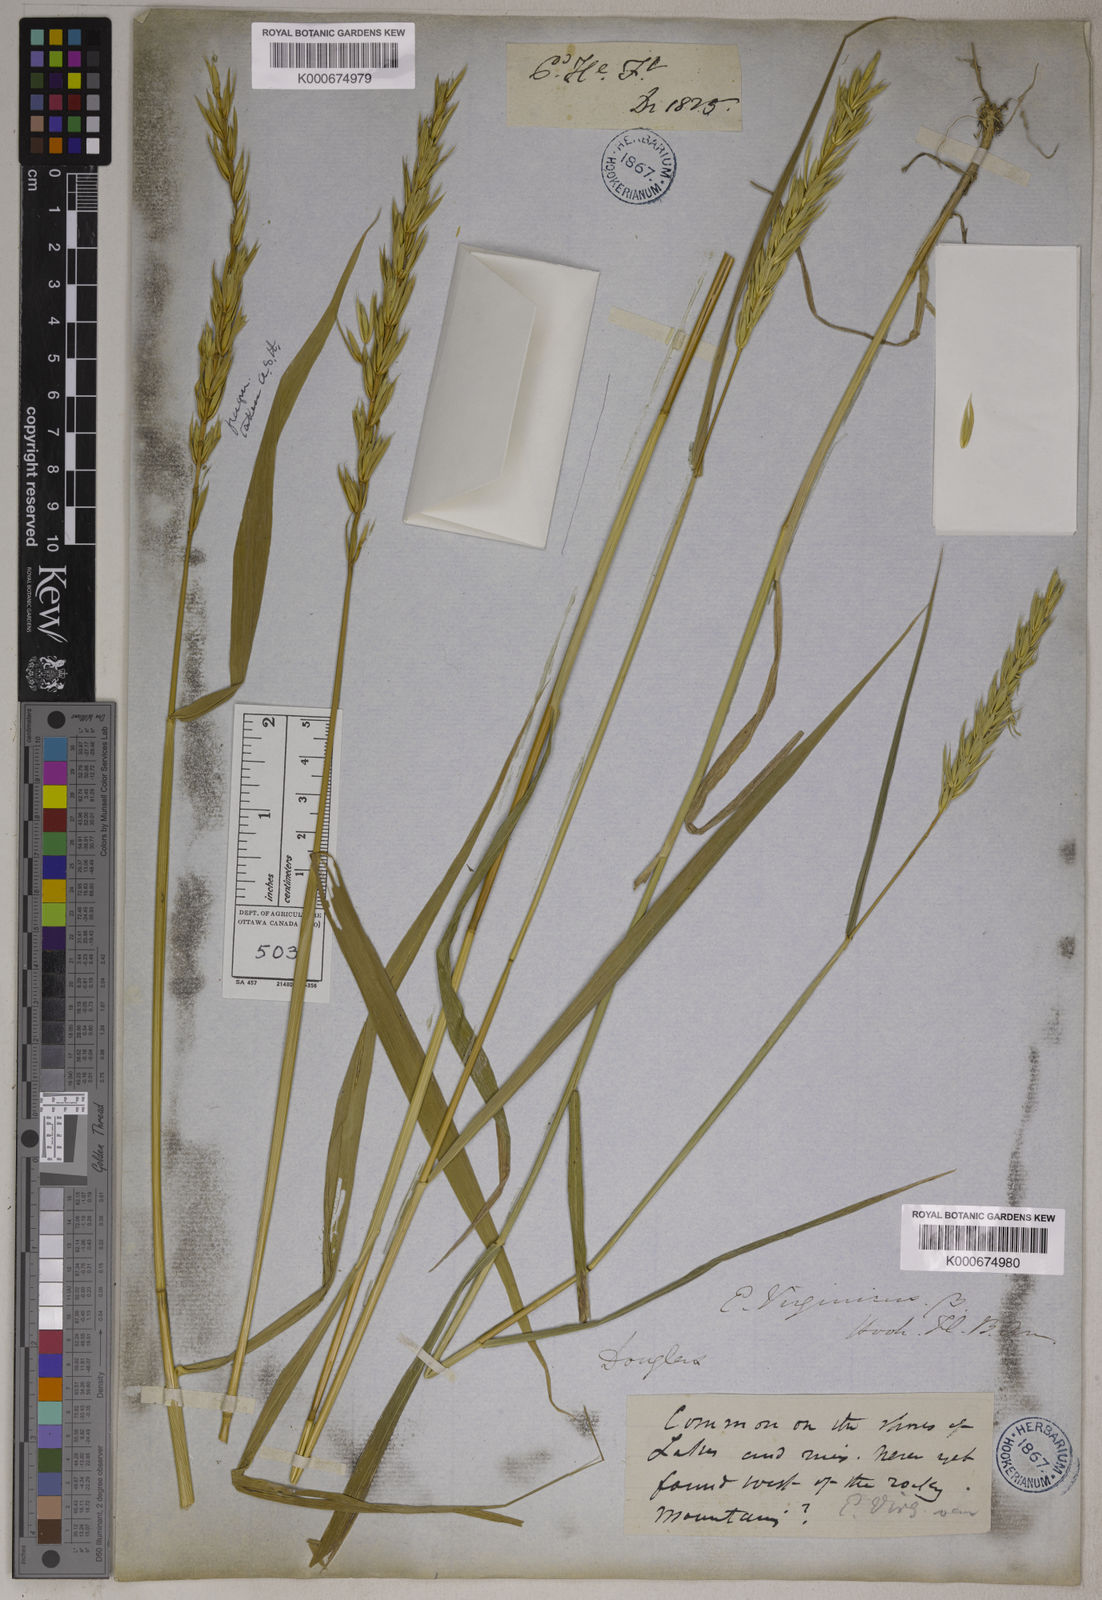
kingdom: Plantae
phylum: Tracheophyta
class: Liliopsida
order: Poales
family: Poaceae
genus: Elymus
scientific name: Elymus virginicus
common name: Common eastern wildrye
